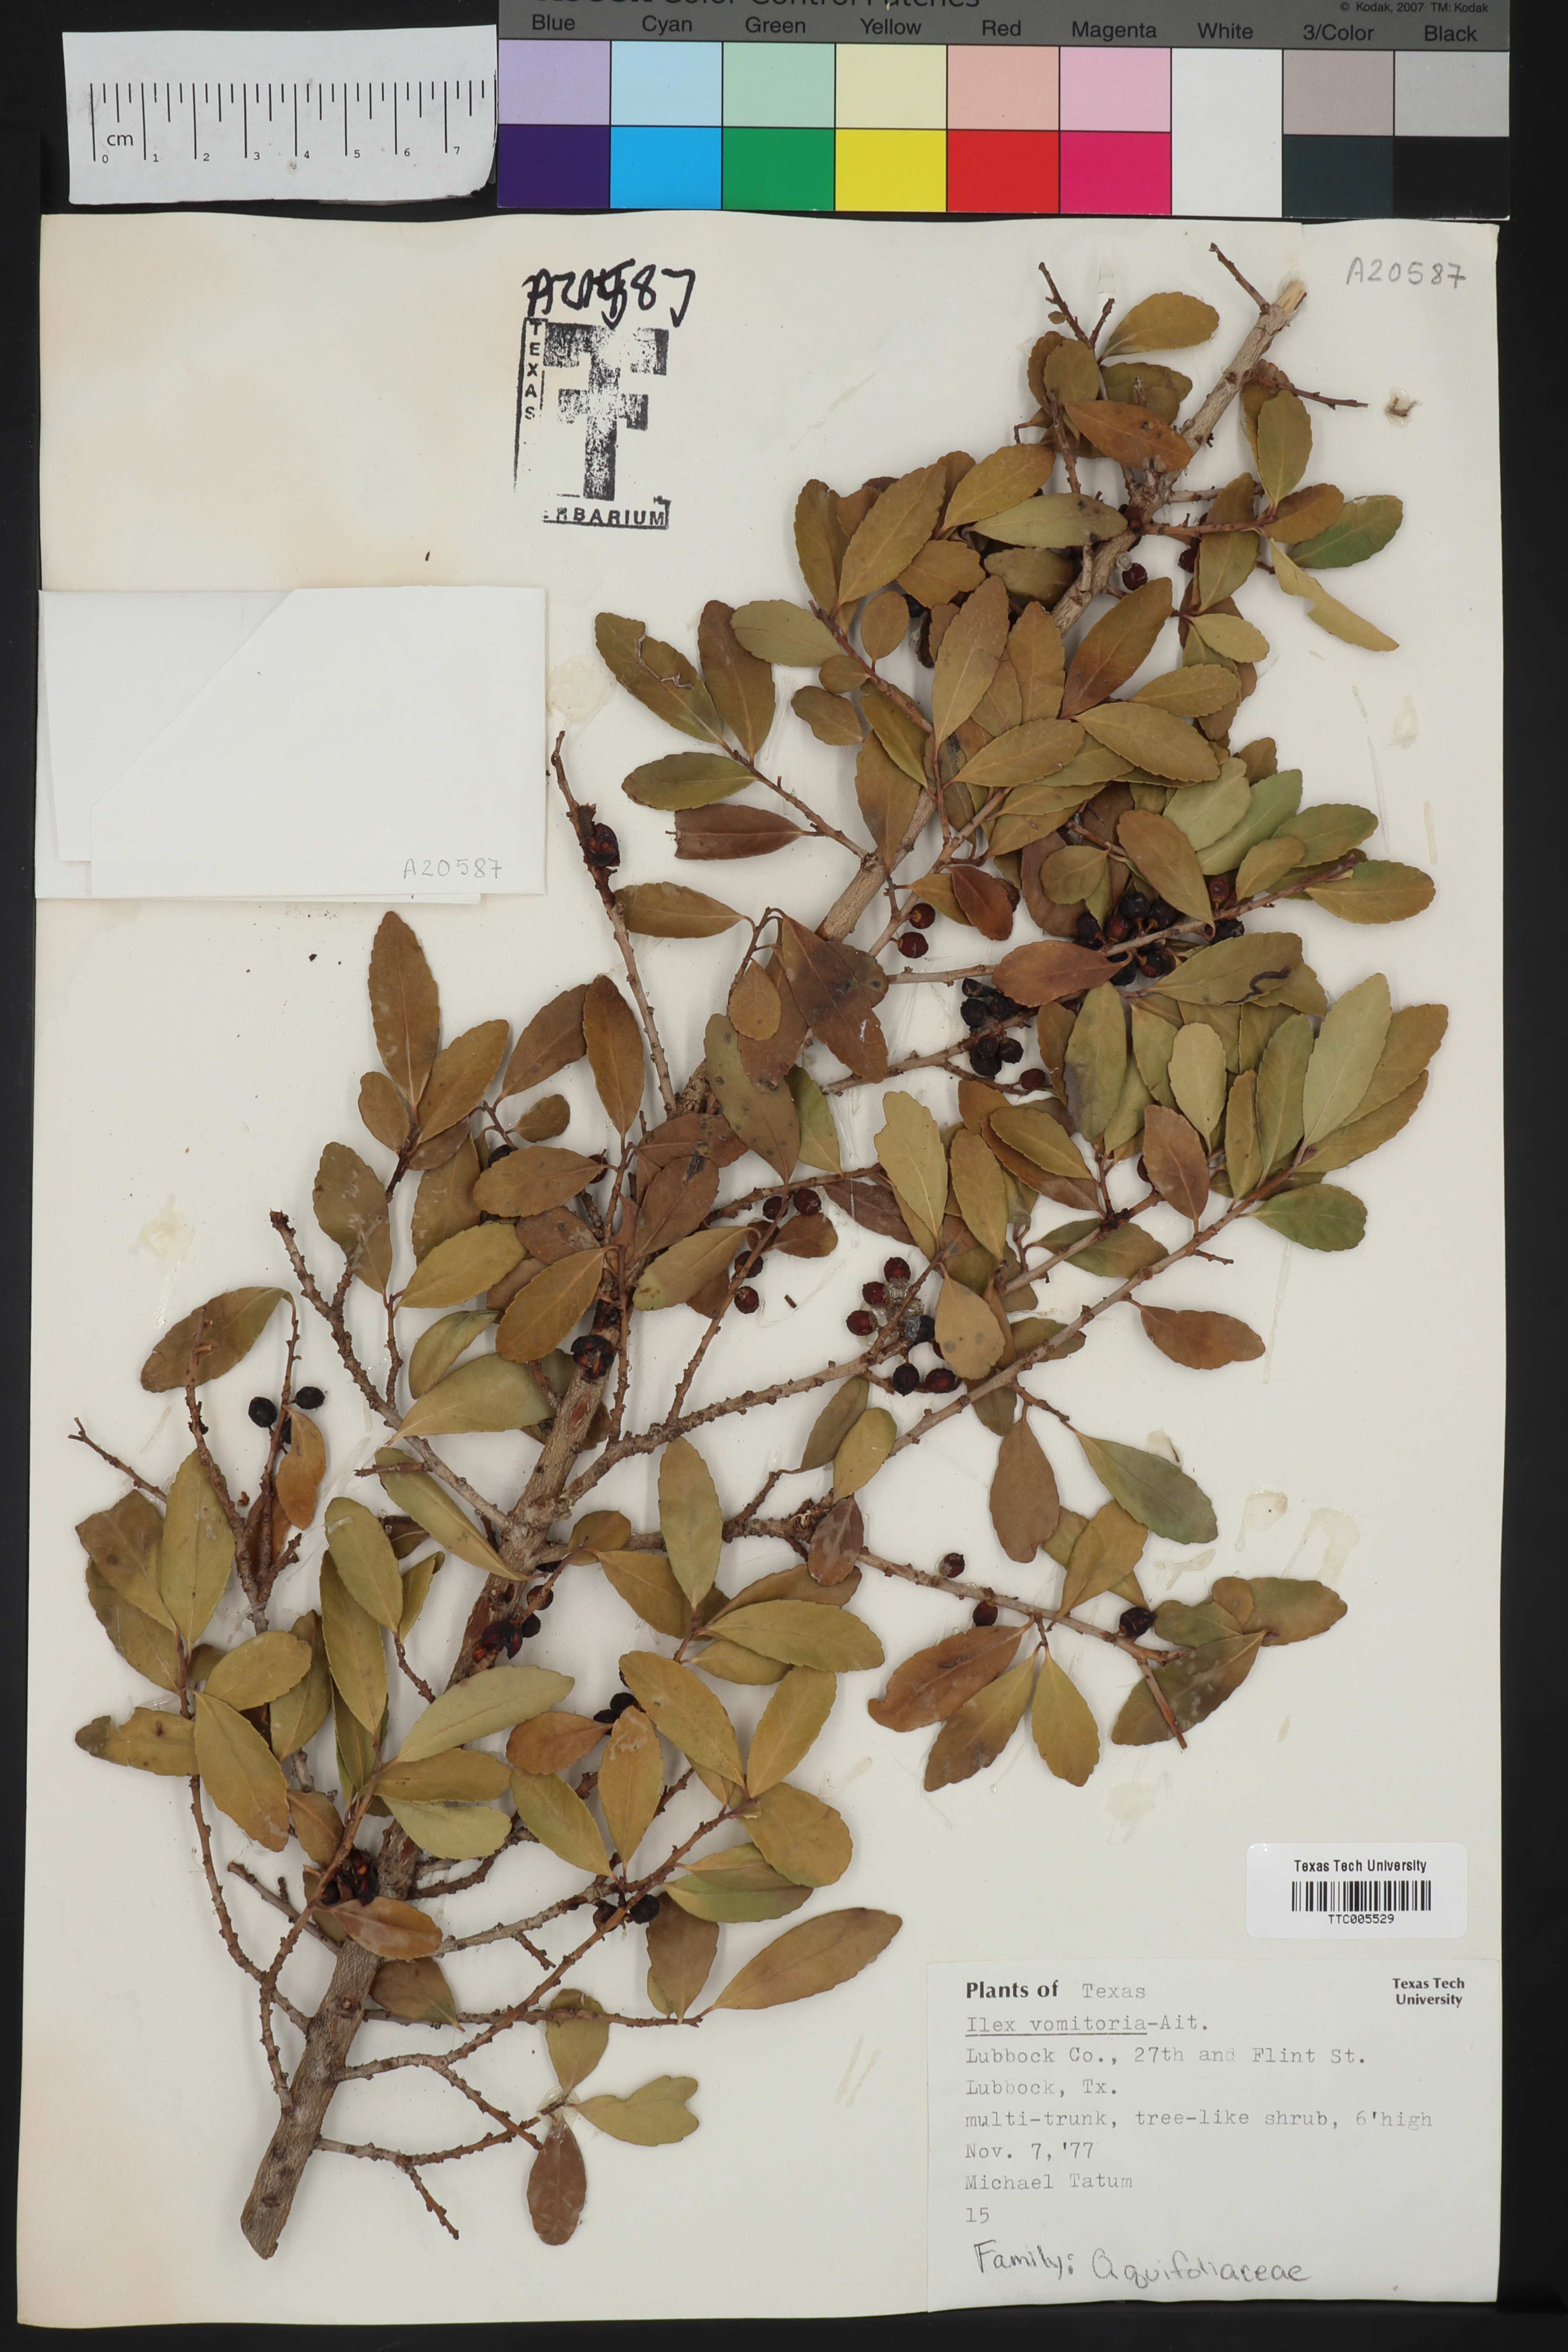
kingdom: Plantae
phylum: Tracheophyta
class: Magnoliopsida
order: Aquifoliales
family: Aquifoliaceae
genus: Ilex
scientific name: Ilex vomitoria
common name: Yaupon holly
